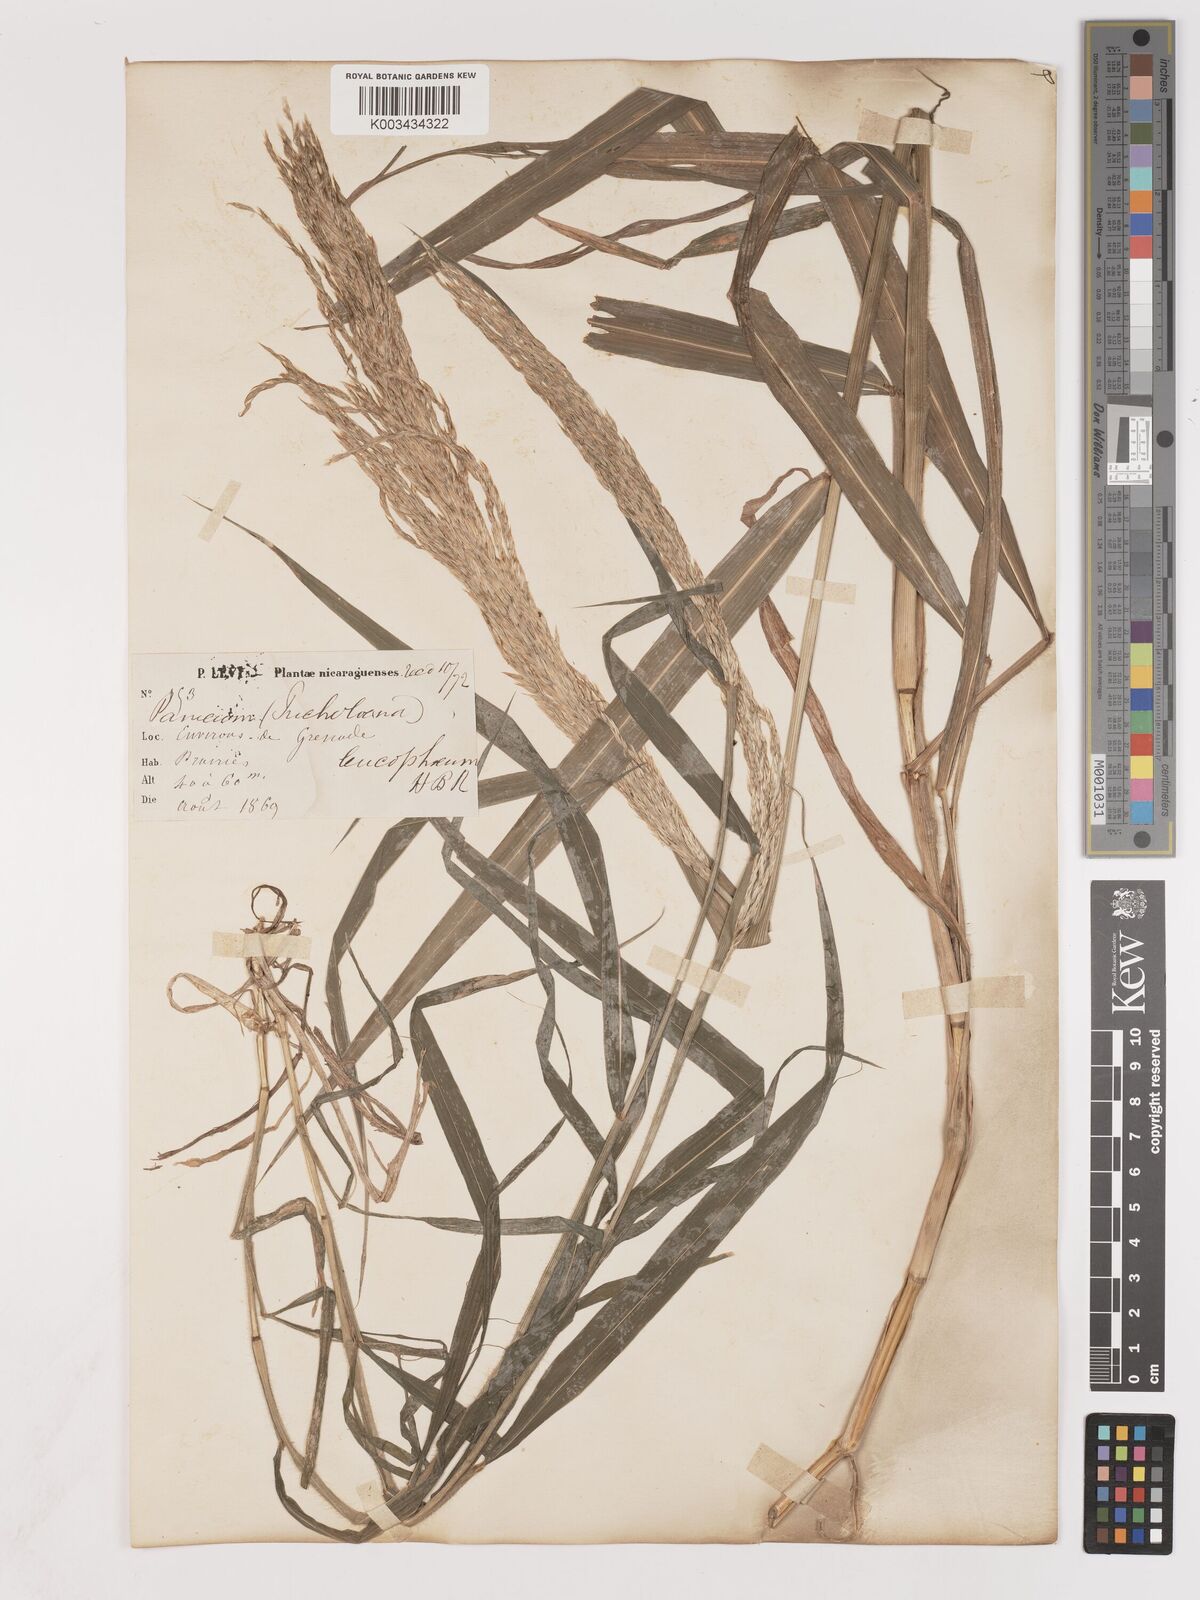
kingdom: Plantae
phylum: Tracheophyta
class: Liliopsida
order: Poales
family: Poaceae
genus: Digitaria
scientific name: Digitaria insularis
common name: Sourgrass
